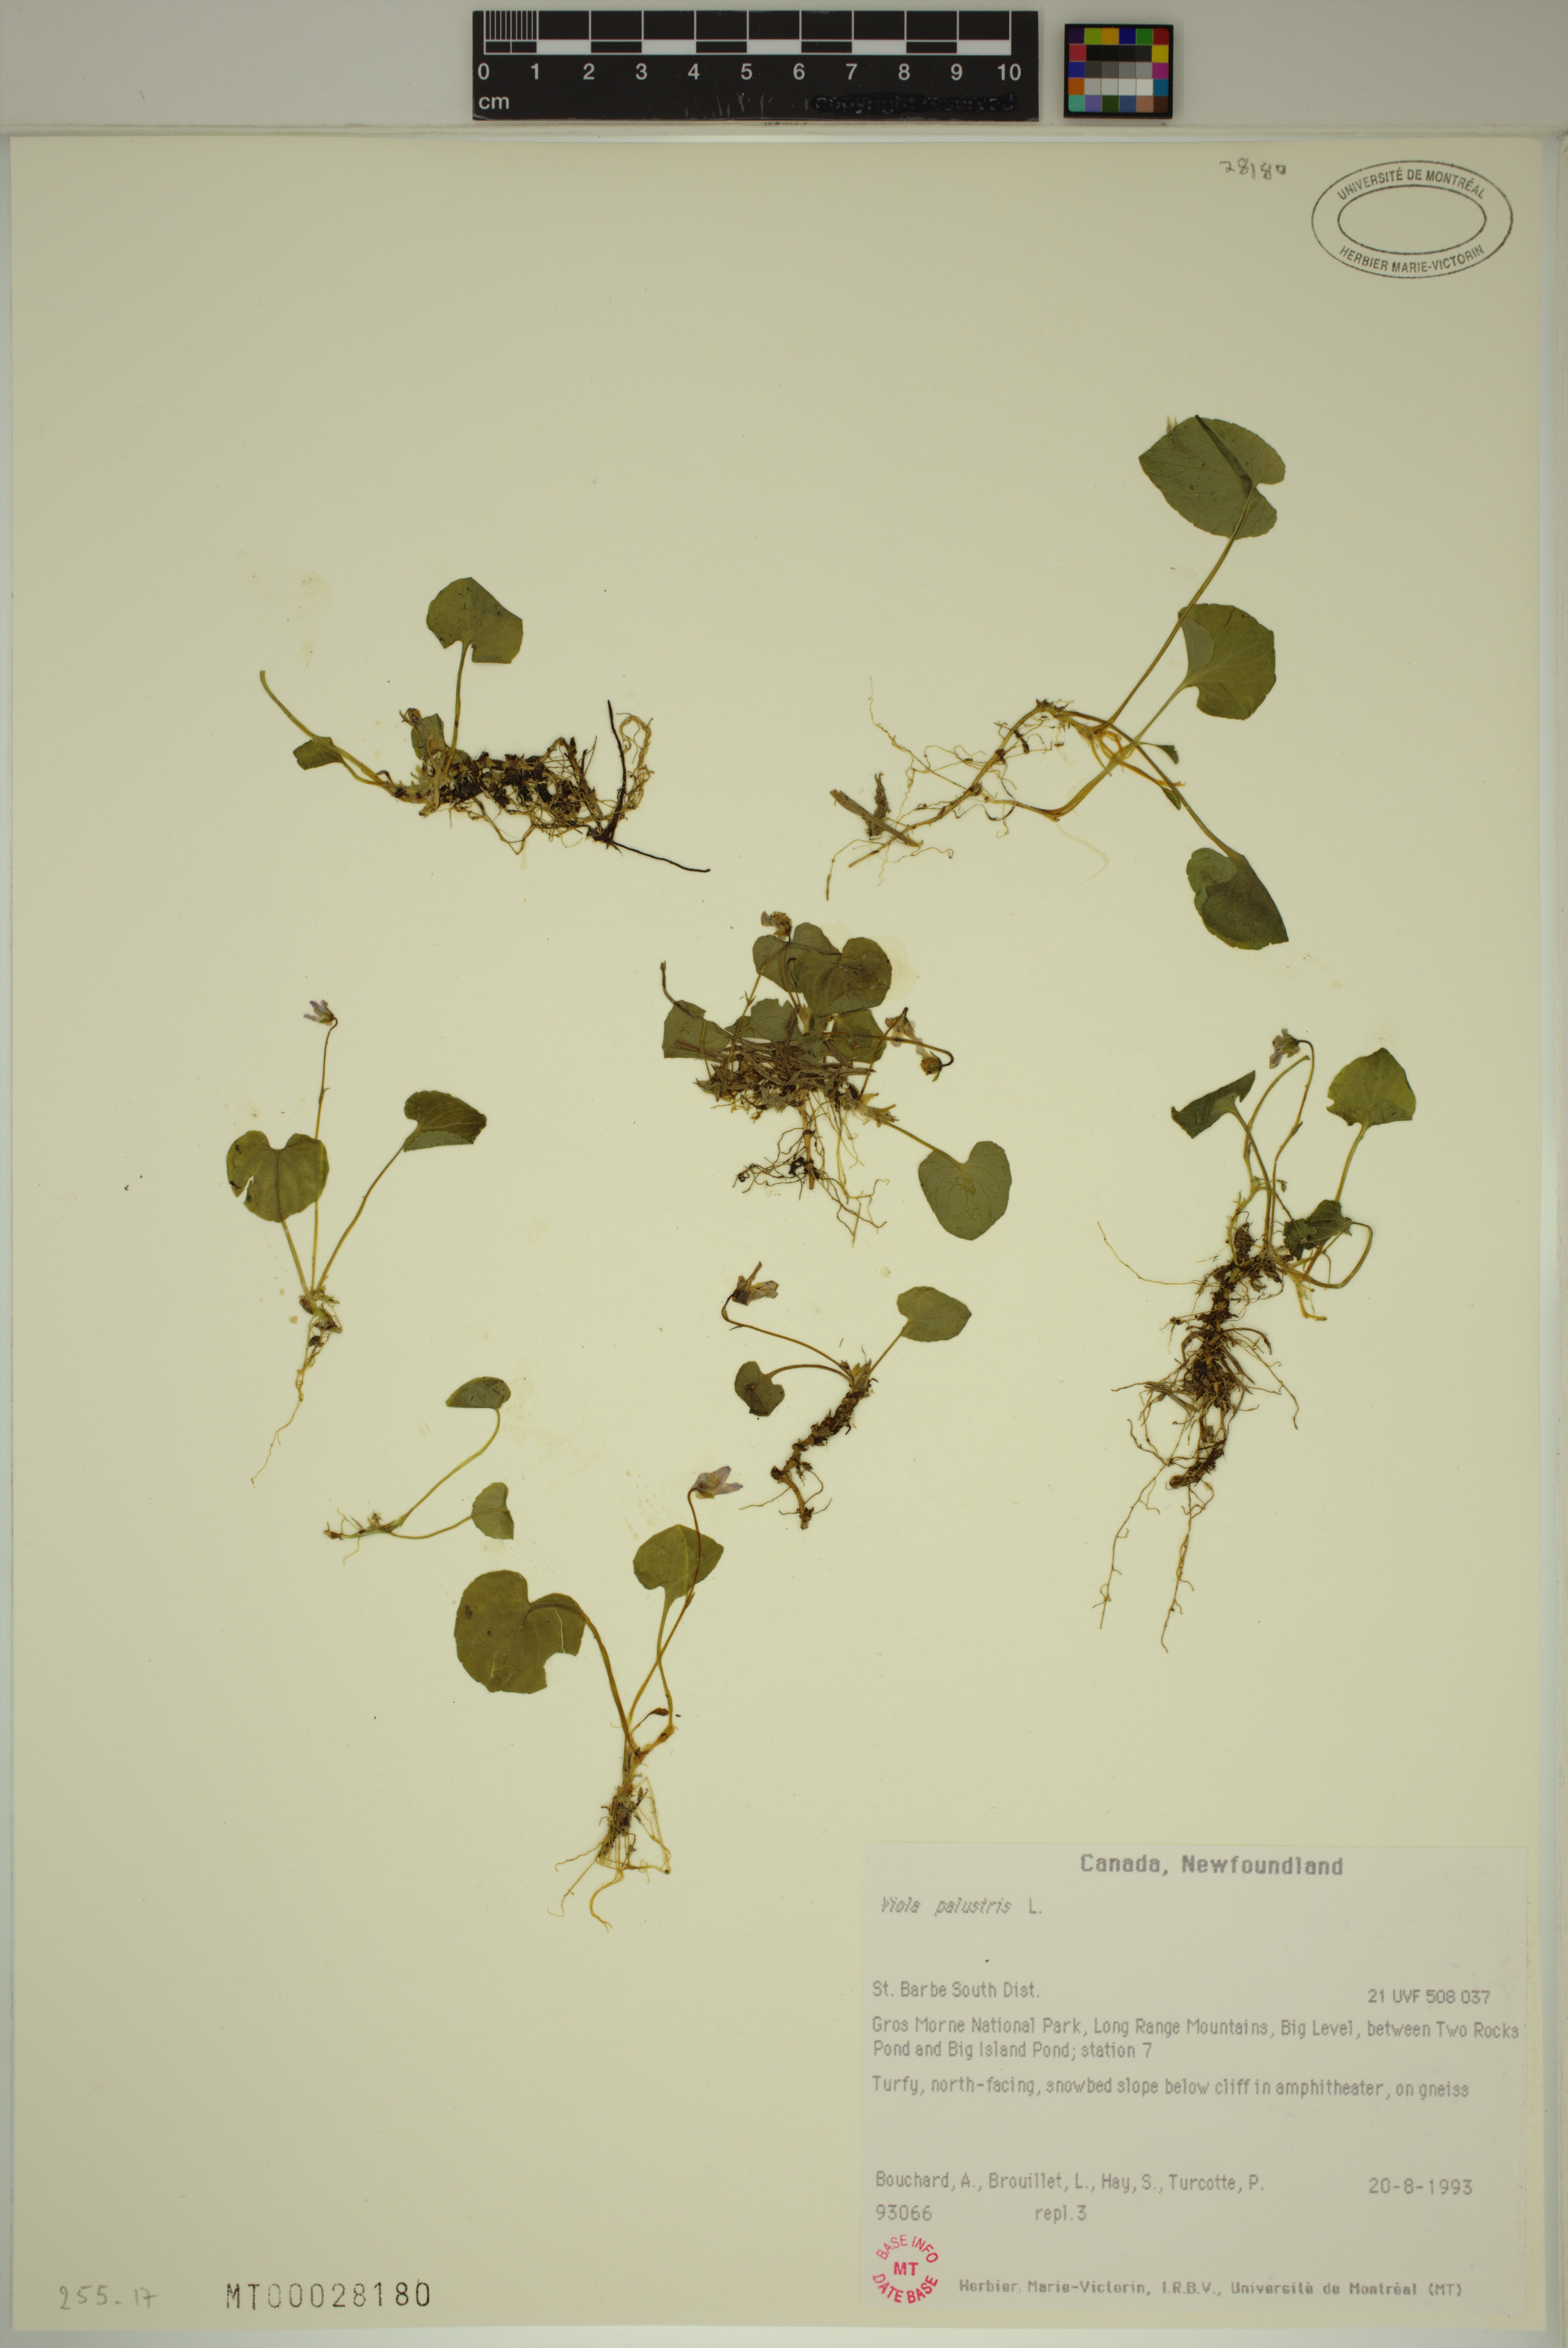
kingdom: Plantae
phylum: Tracheophyta
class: Magnoliopsida
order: Malpighiales
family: Violaceae
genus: Viola
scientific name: Viola palustris
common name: Marsh violet
